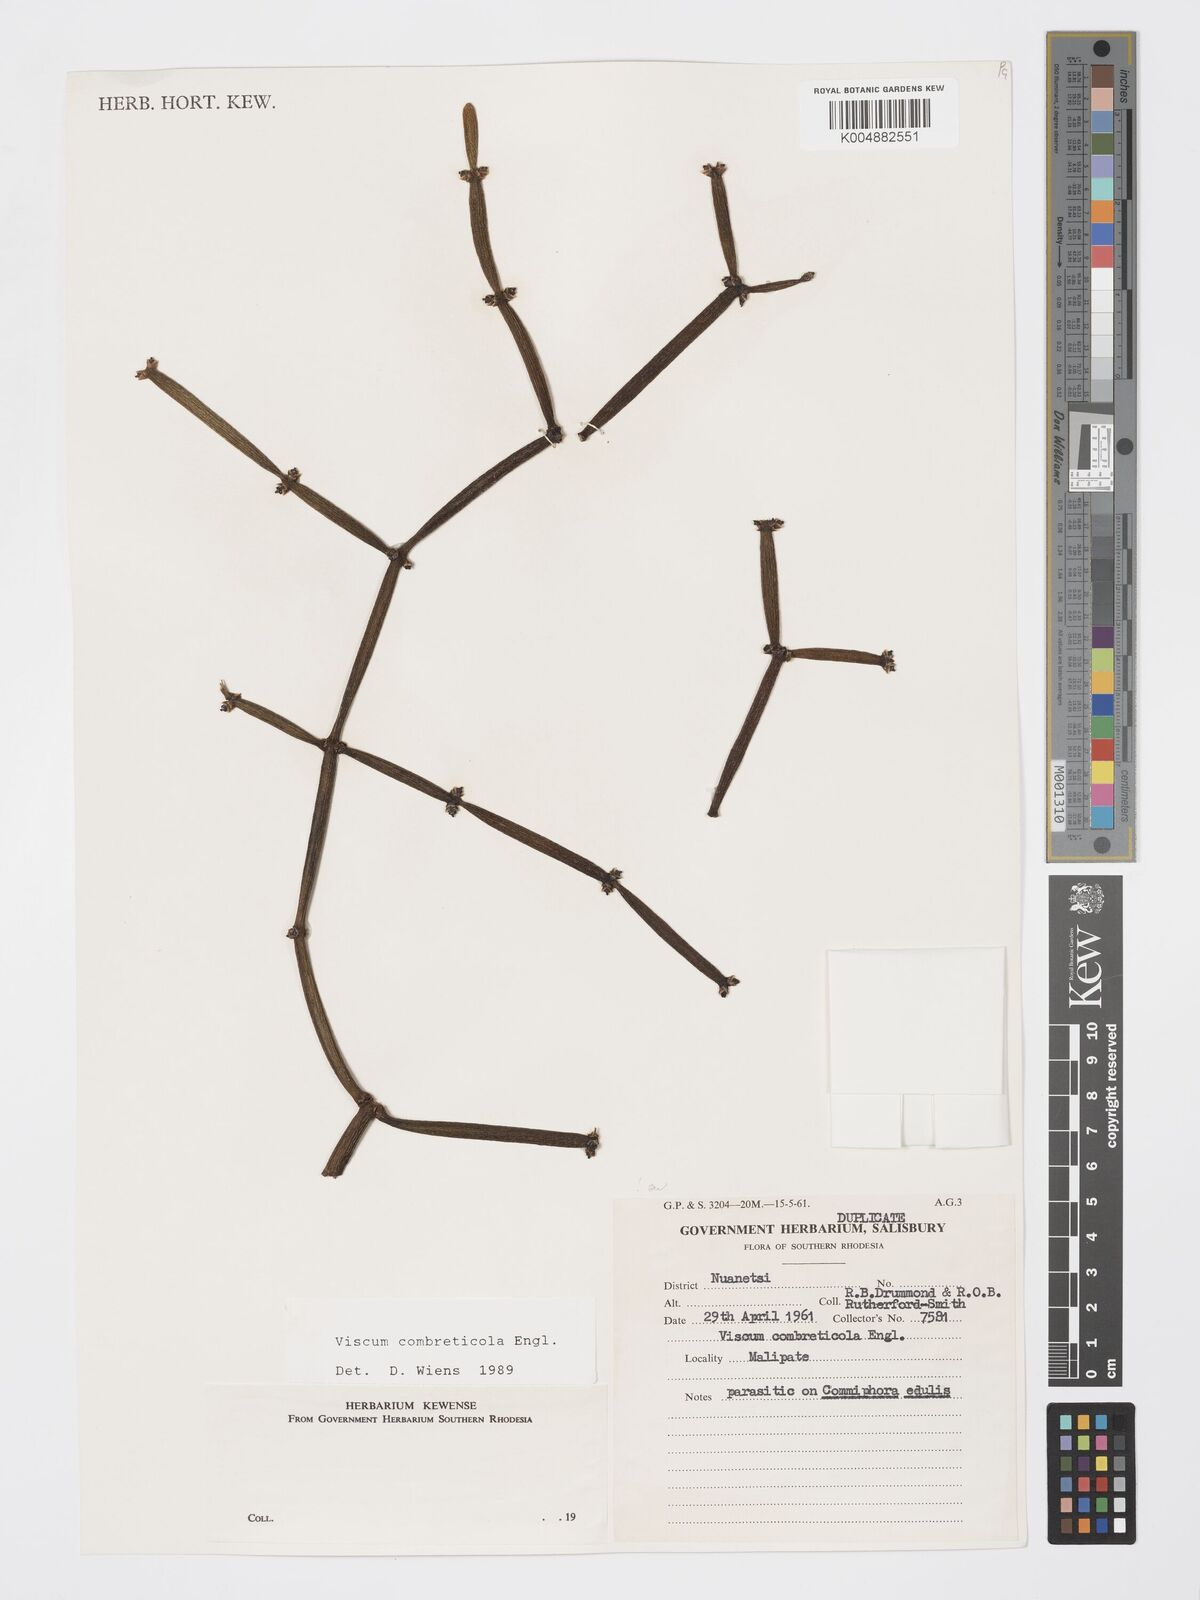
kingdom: Plantae
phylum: Tracheophyta
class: Magnoliopsida
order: Santalales
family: Viscaceae
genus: Viscum
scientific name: Viscum combreticola
